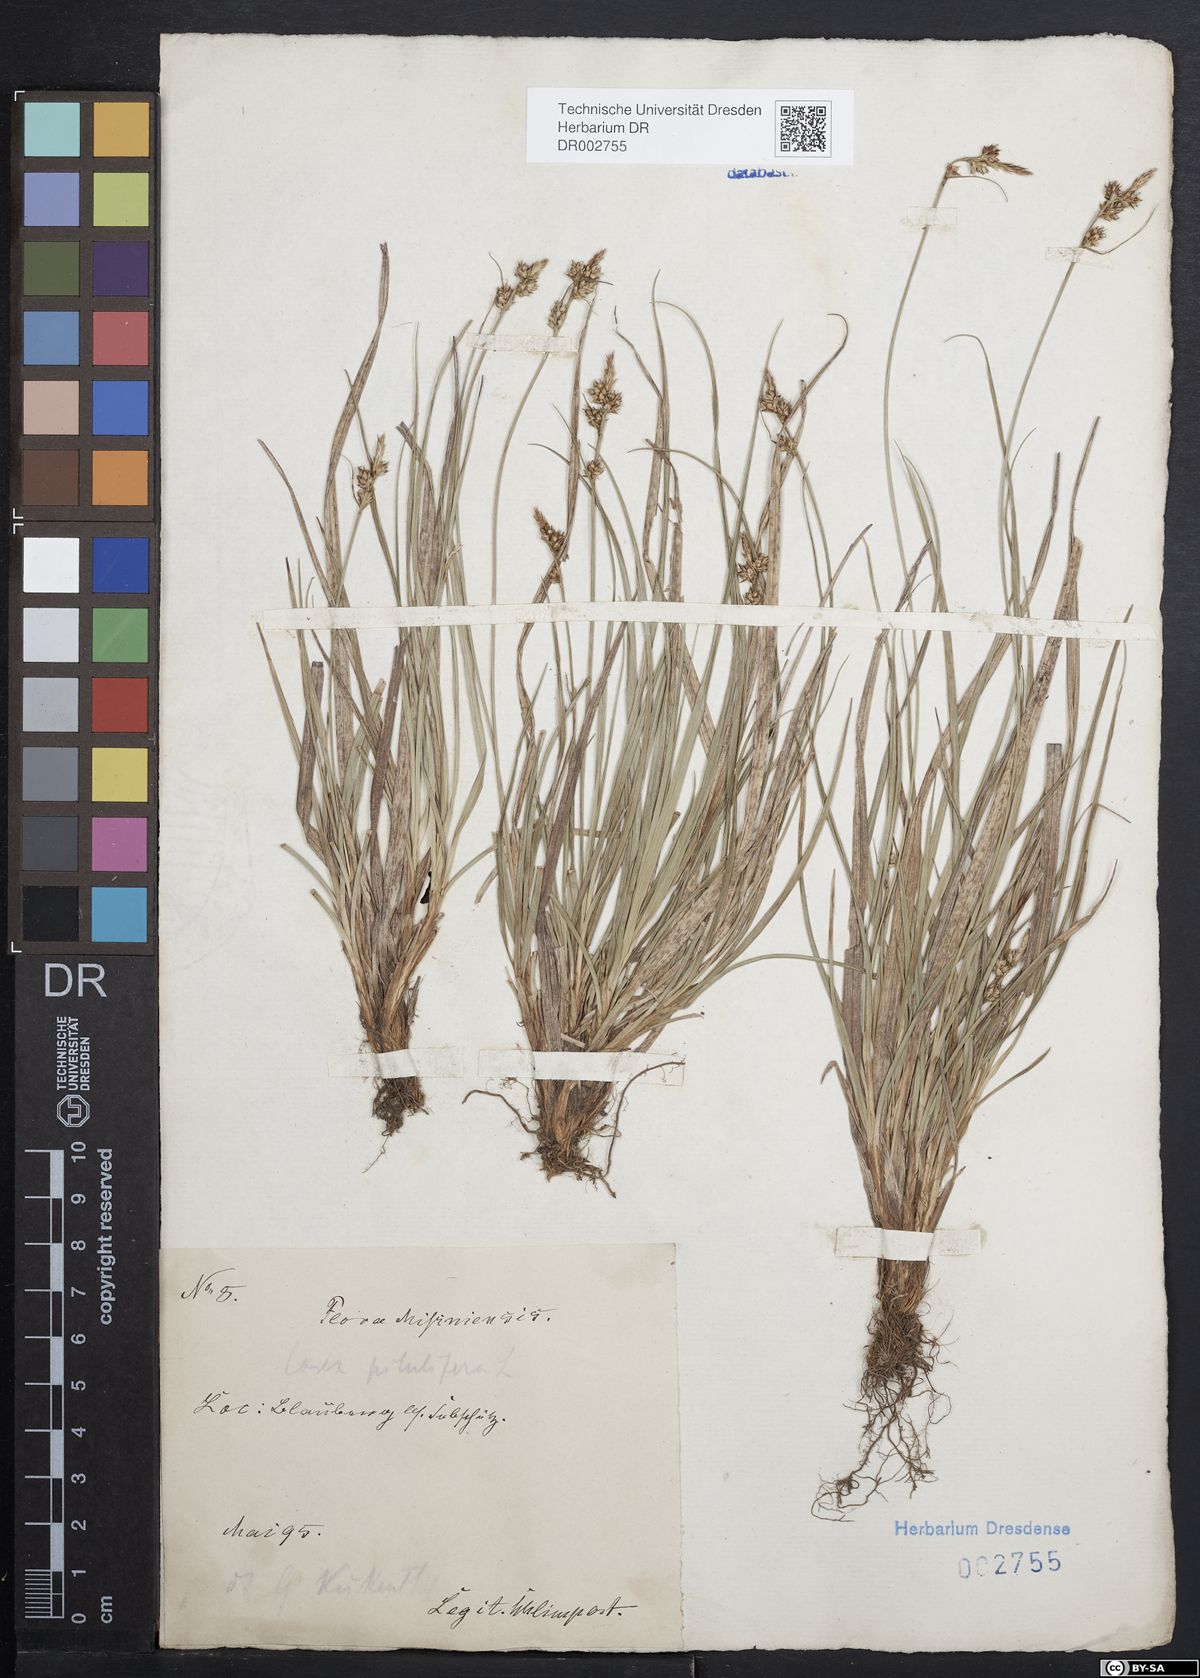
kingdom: Plantae
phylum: Tracheophyta
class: Liliopsida
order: Poales
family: Cyperaceae
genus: Carex
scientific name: Carex caryophyllea
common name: Spring sedge
